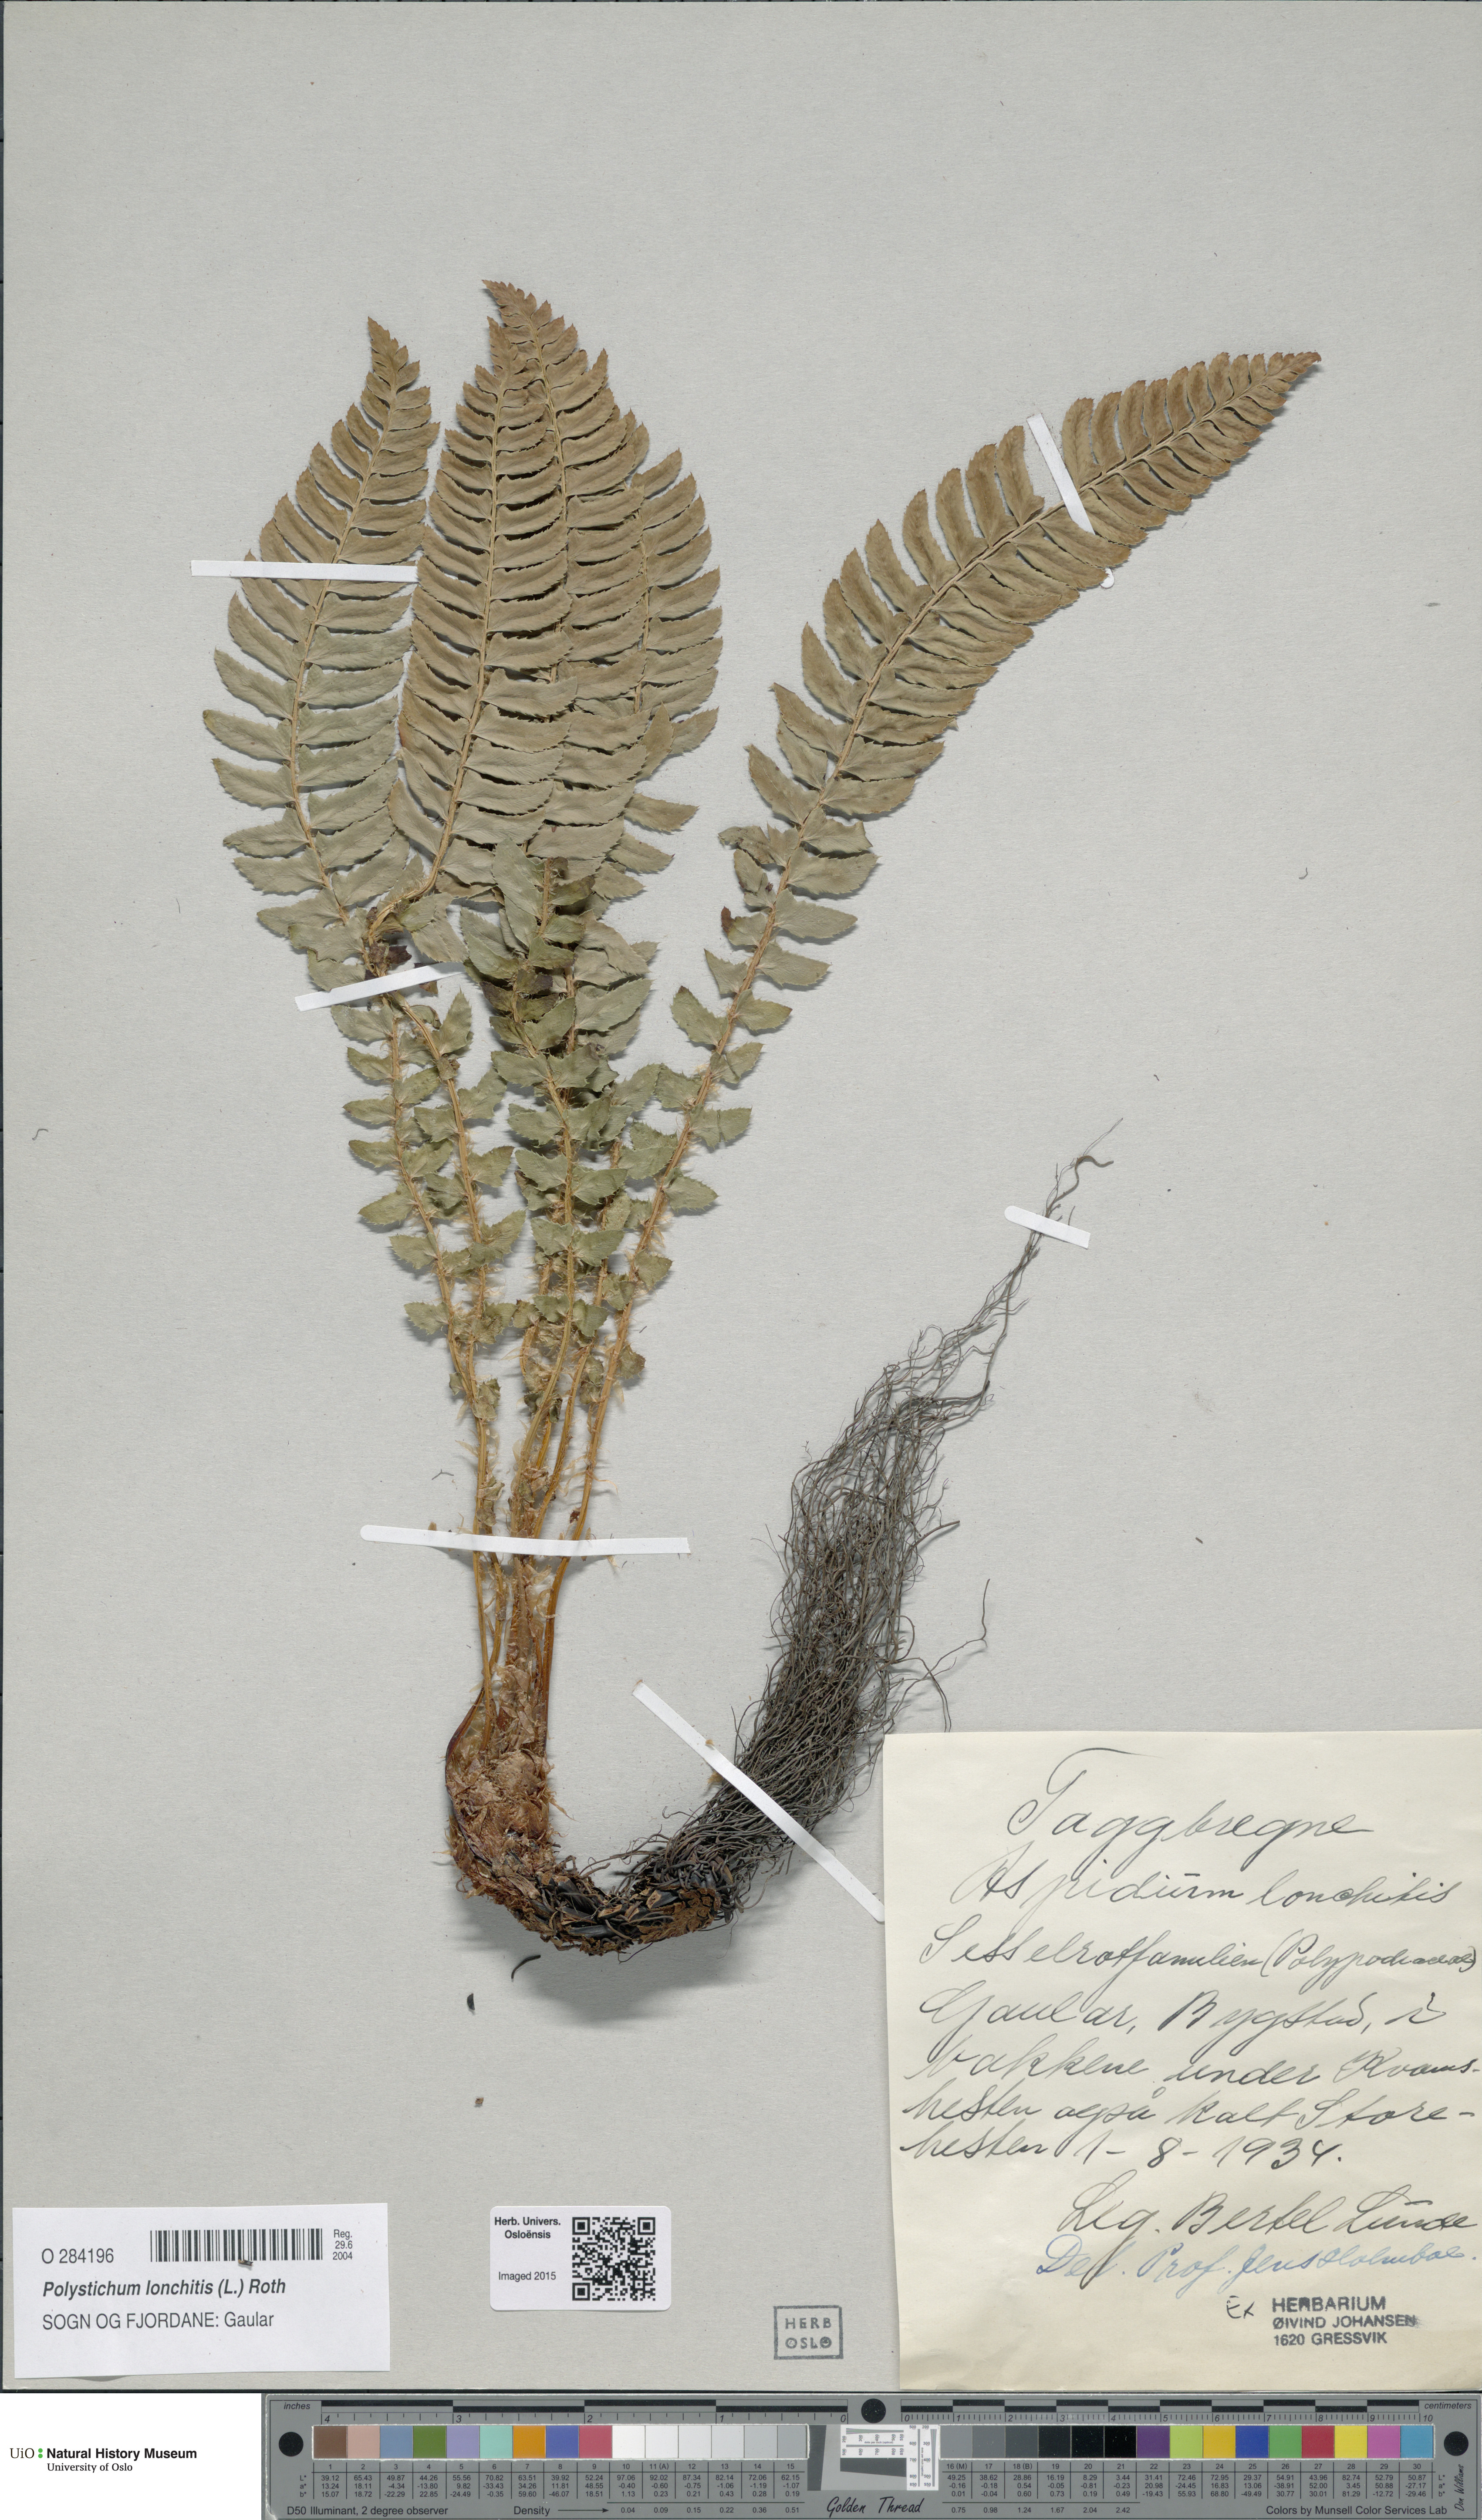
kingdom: Plantae
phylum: Tracheophyta
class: Polypodiopsida
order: Polypodiales
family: Dryopteridaceae
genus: Polystichum
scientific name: Polystichum lonchitis
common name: Holly fern
